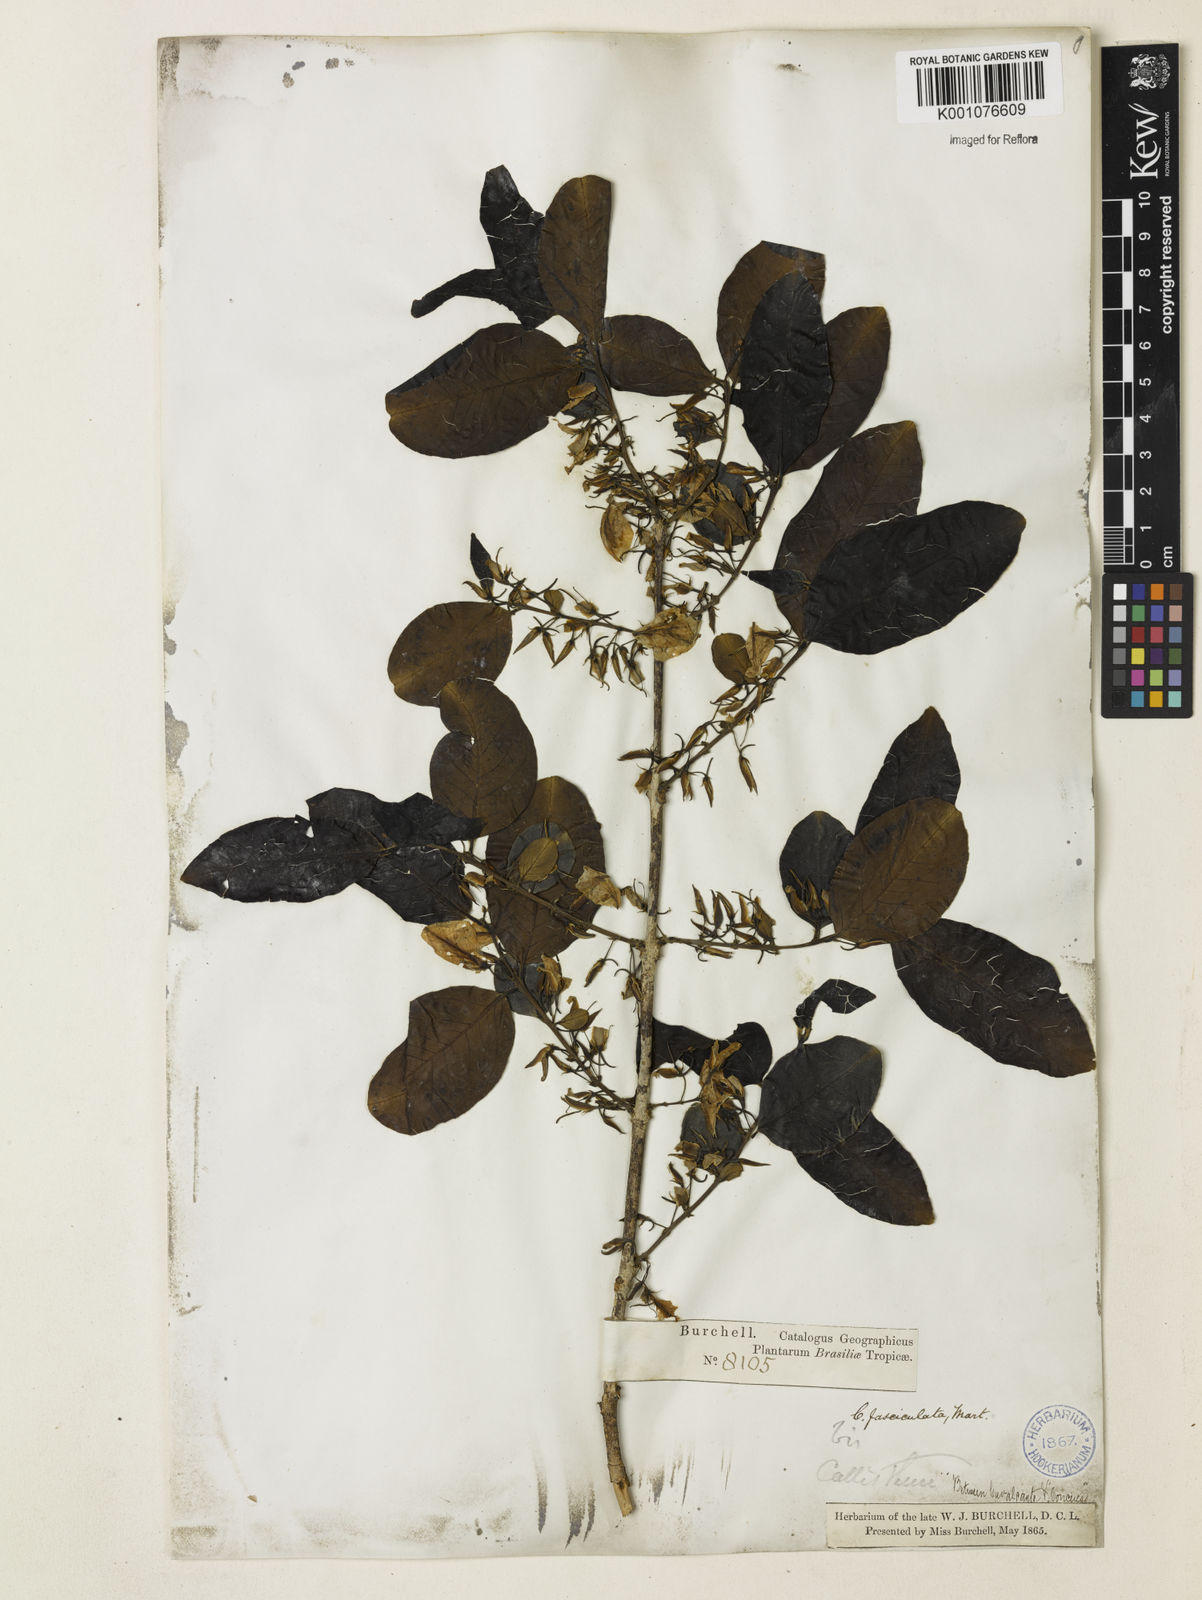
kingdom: Plantae
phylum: Tracheophyta
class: Magnoliopsida
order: Myrtales
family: Vochysiaceae
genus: Callisthene
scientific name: Callisthene fasciculata
